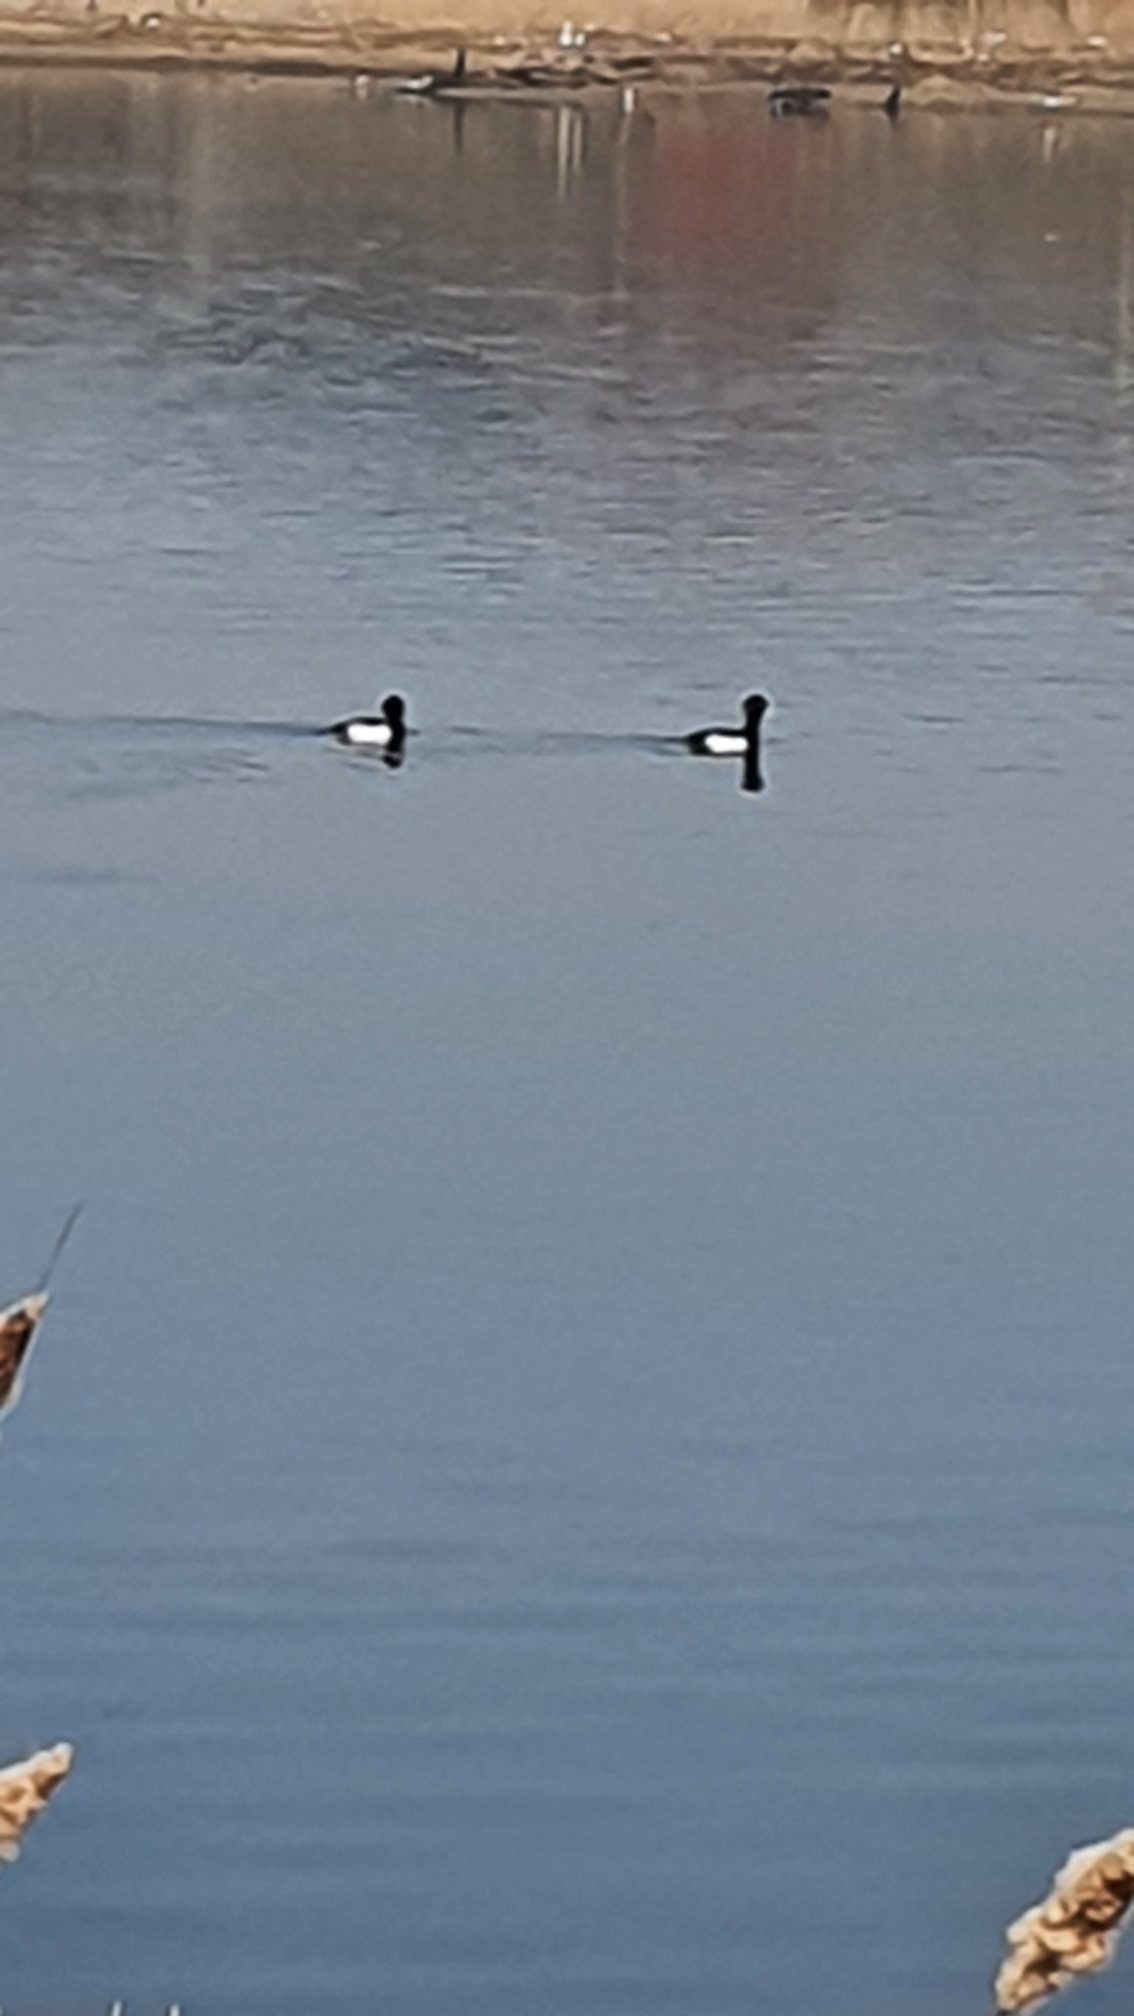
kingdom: Animalia
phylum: Chordata
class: Aves
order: Anseriformes
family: Anatidae
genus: Aythya
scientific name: Aythya fuligula
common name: Troldand
